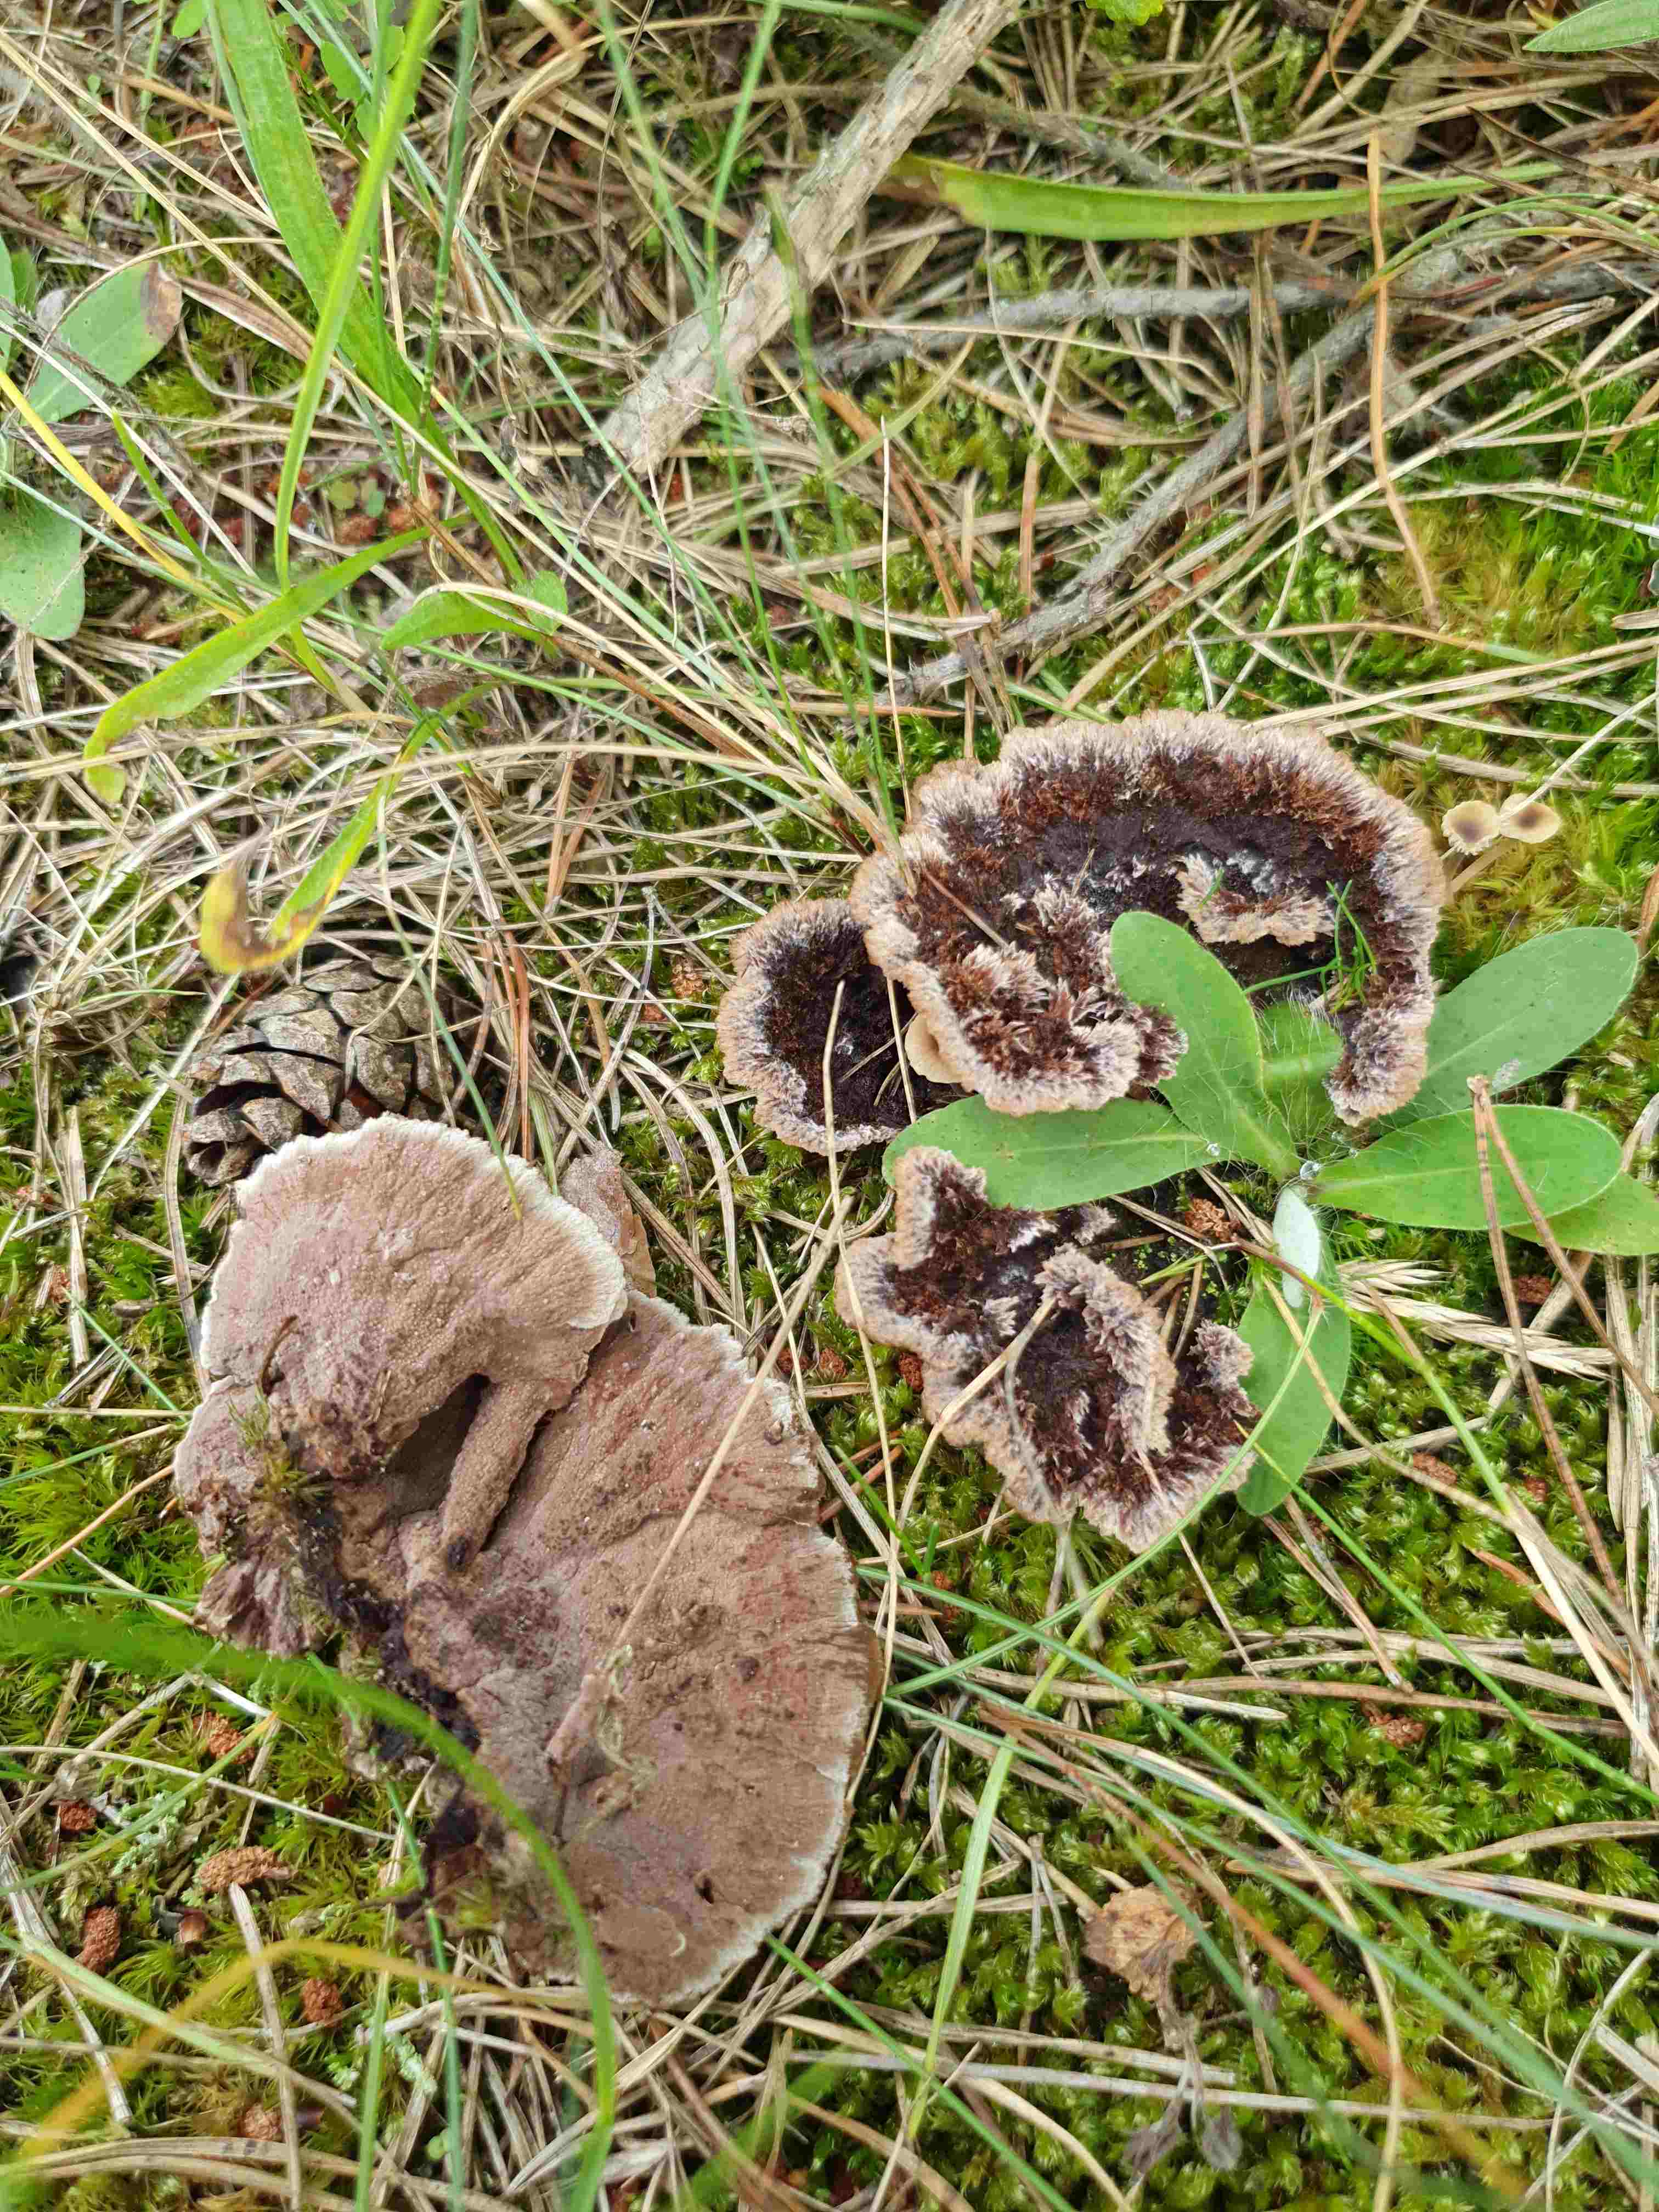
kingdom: Fungi
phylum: Basidiomycota
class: Agaricomycetes
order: Thelephorales
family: Thelephoraceae
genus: Thelephora
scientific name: Thelephora terrestris
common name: fliget frynsesvamp
